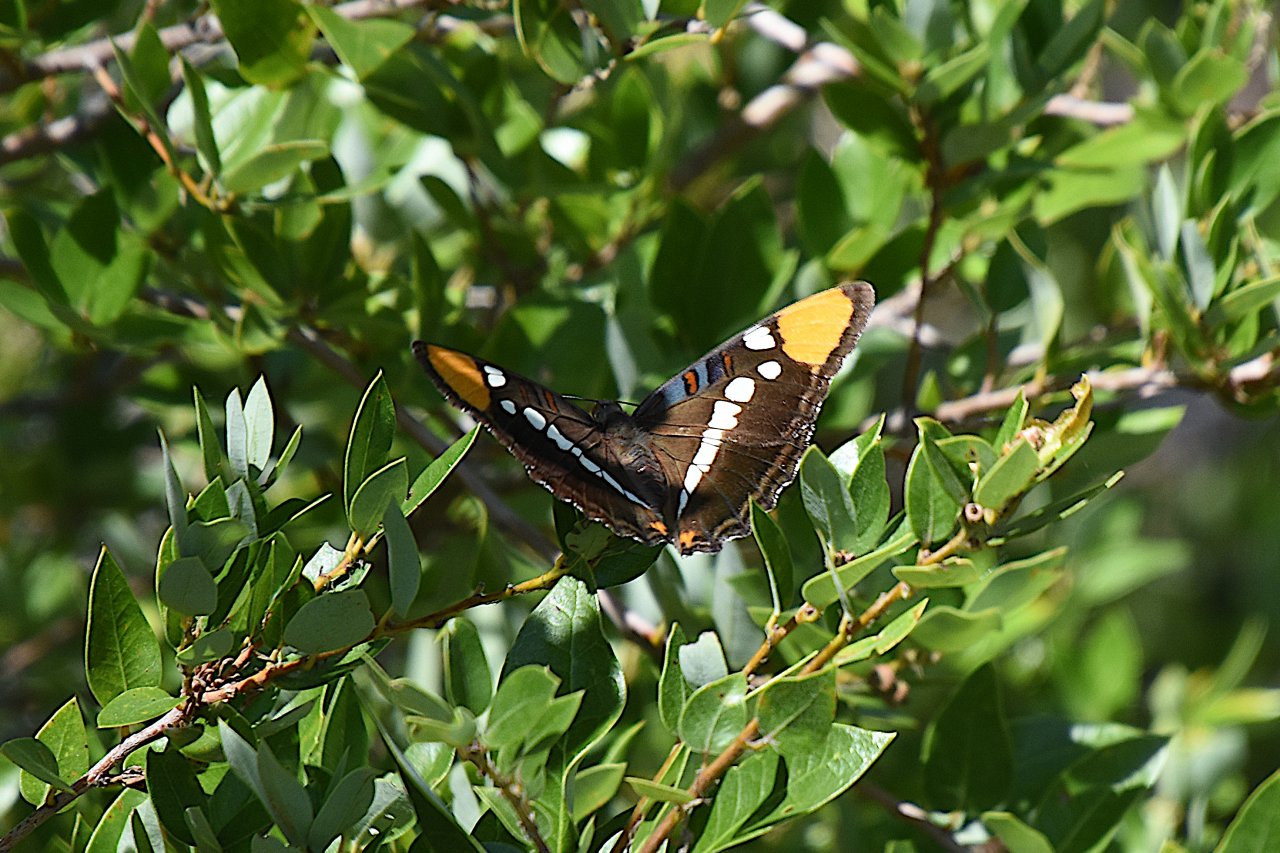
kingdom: Animalia
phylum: Arthropoda
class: Insecta
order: Lepidoptera
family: Nymphalidae
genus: Limenitis
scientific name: Limenitis bredowii
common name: California Sister
